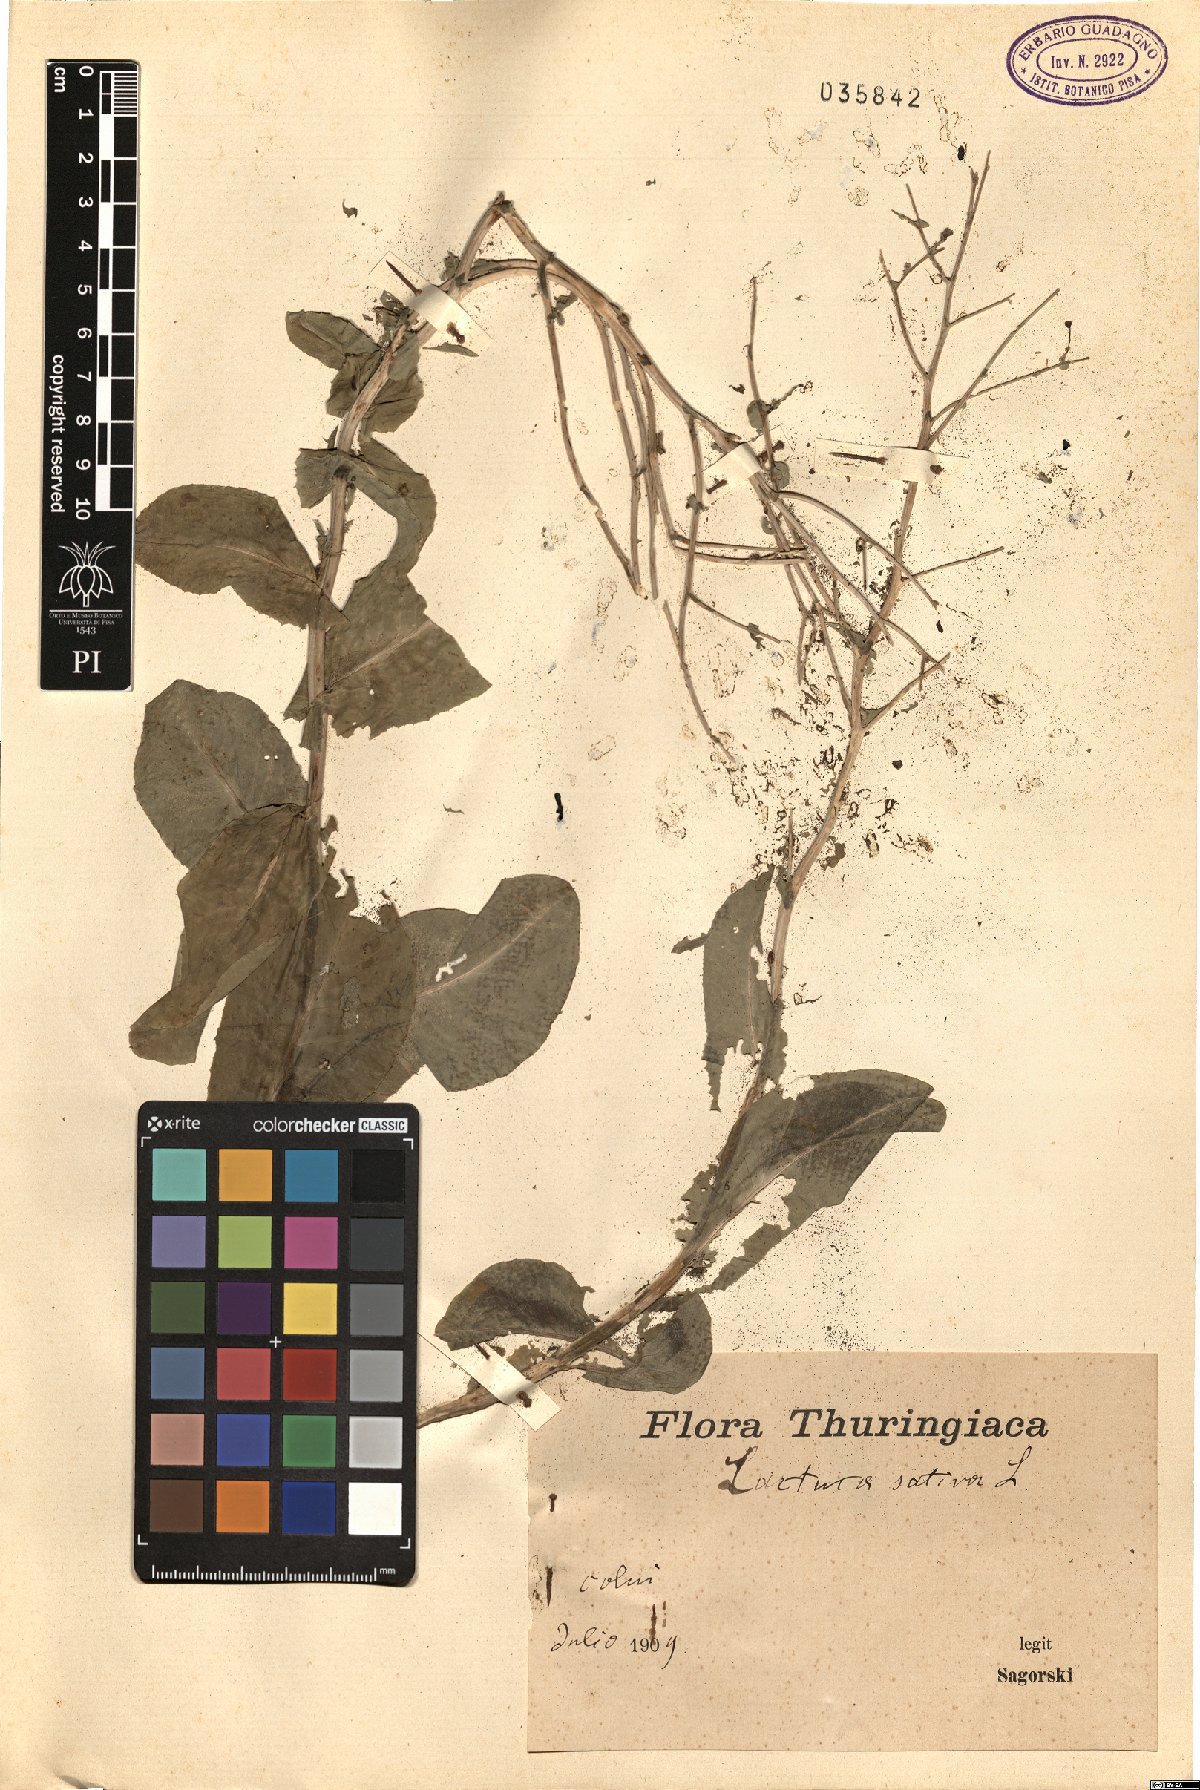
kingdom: Plantae
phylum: Tracheophyta
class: Magnoliopsida
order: Asterales
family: Asteraceae
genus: Lactuca
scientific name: Lactuca sativa
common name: Garden lettuce
